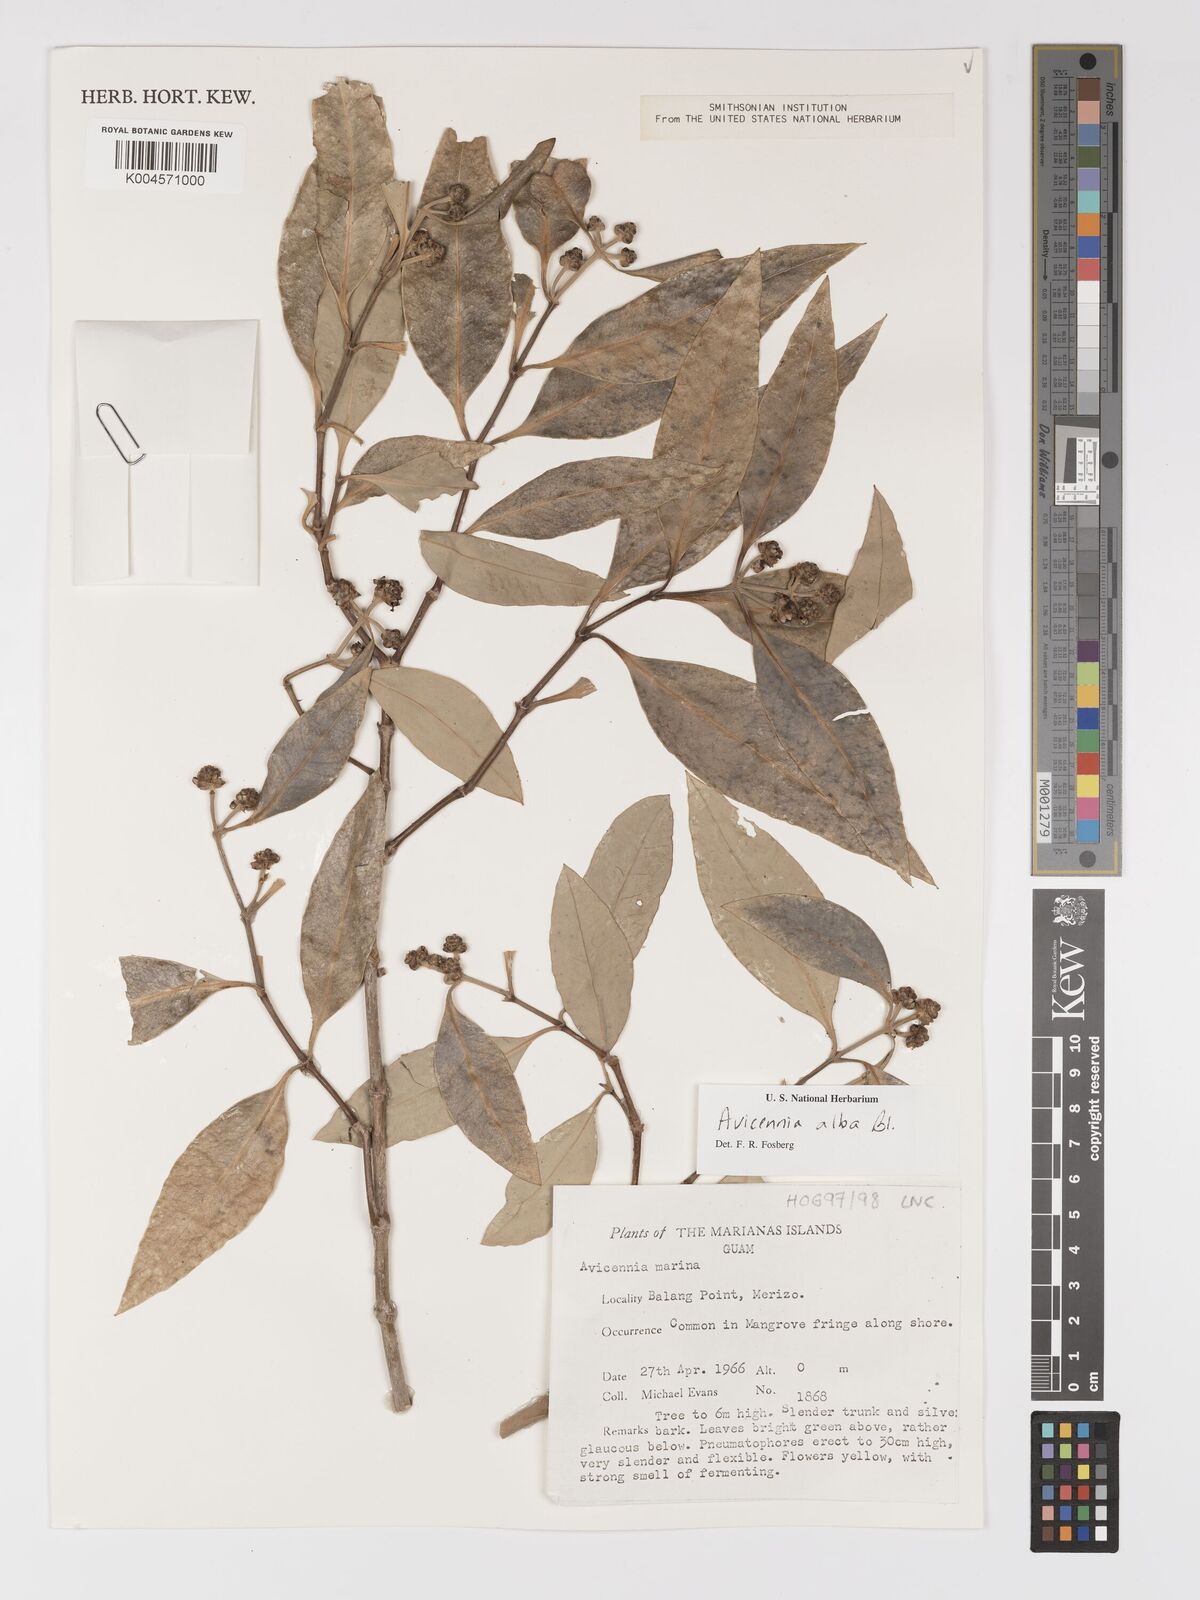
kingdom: Plantae
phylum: Tracheophyta
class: Magnoliopsida
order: Lamiales
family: Acanthaceae
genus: Avicennia
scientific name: Avicennia alba
